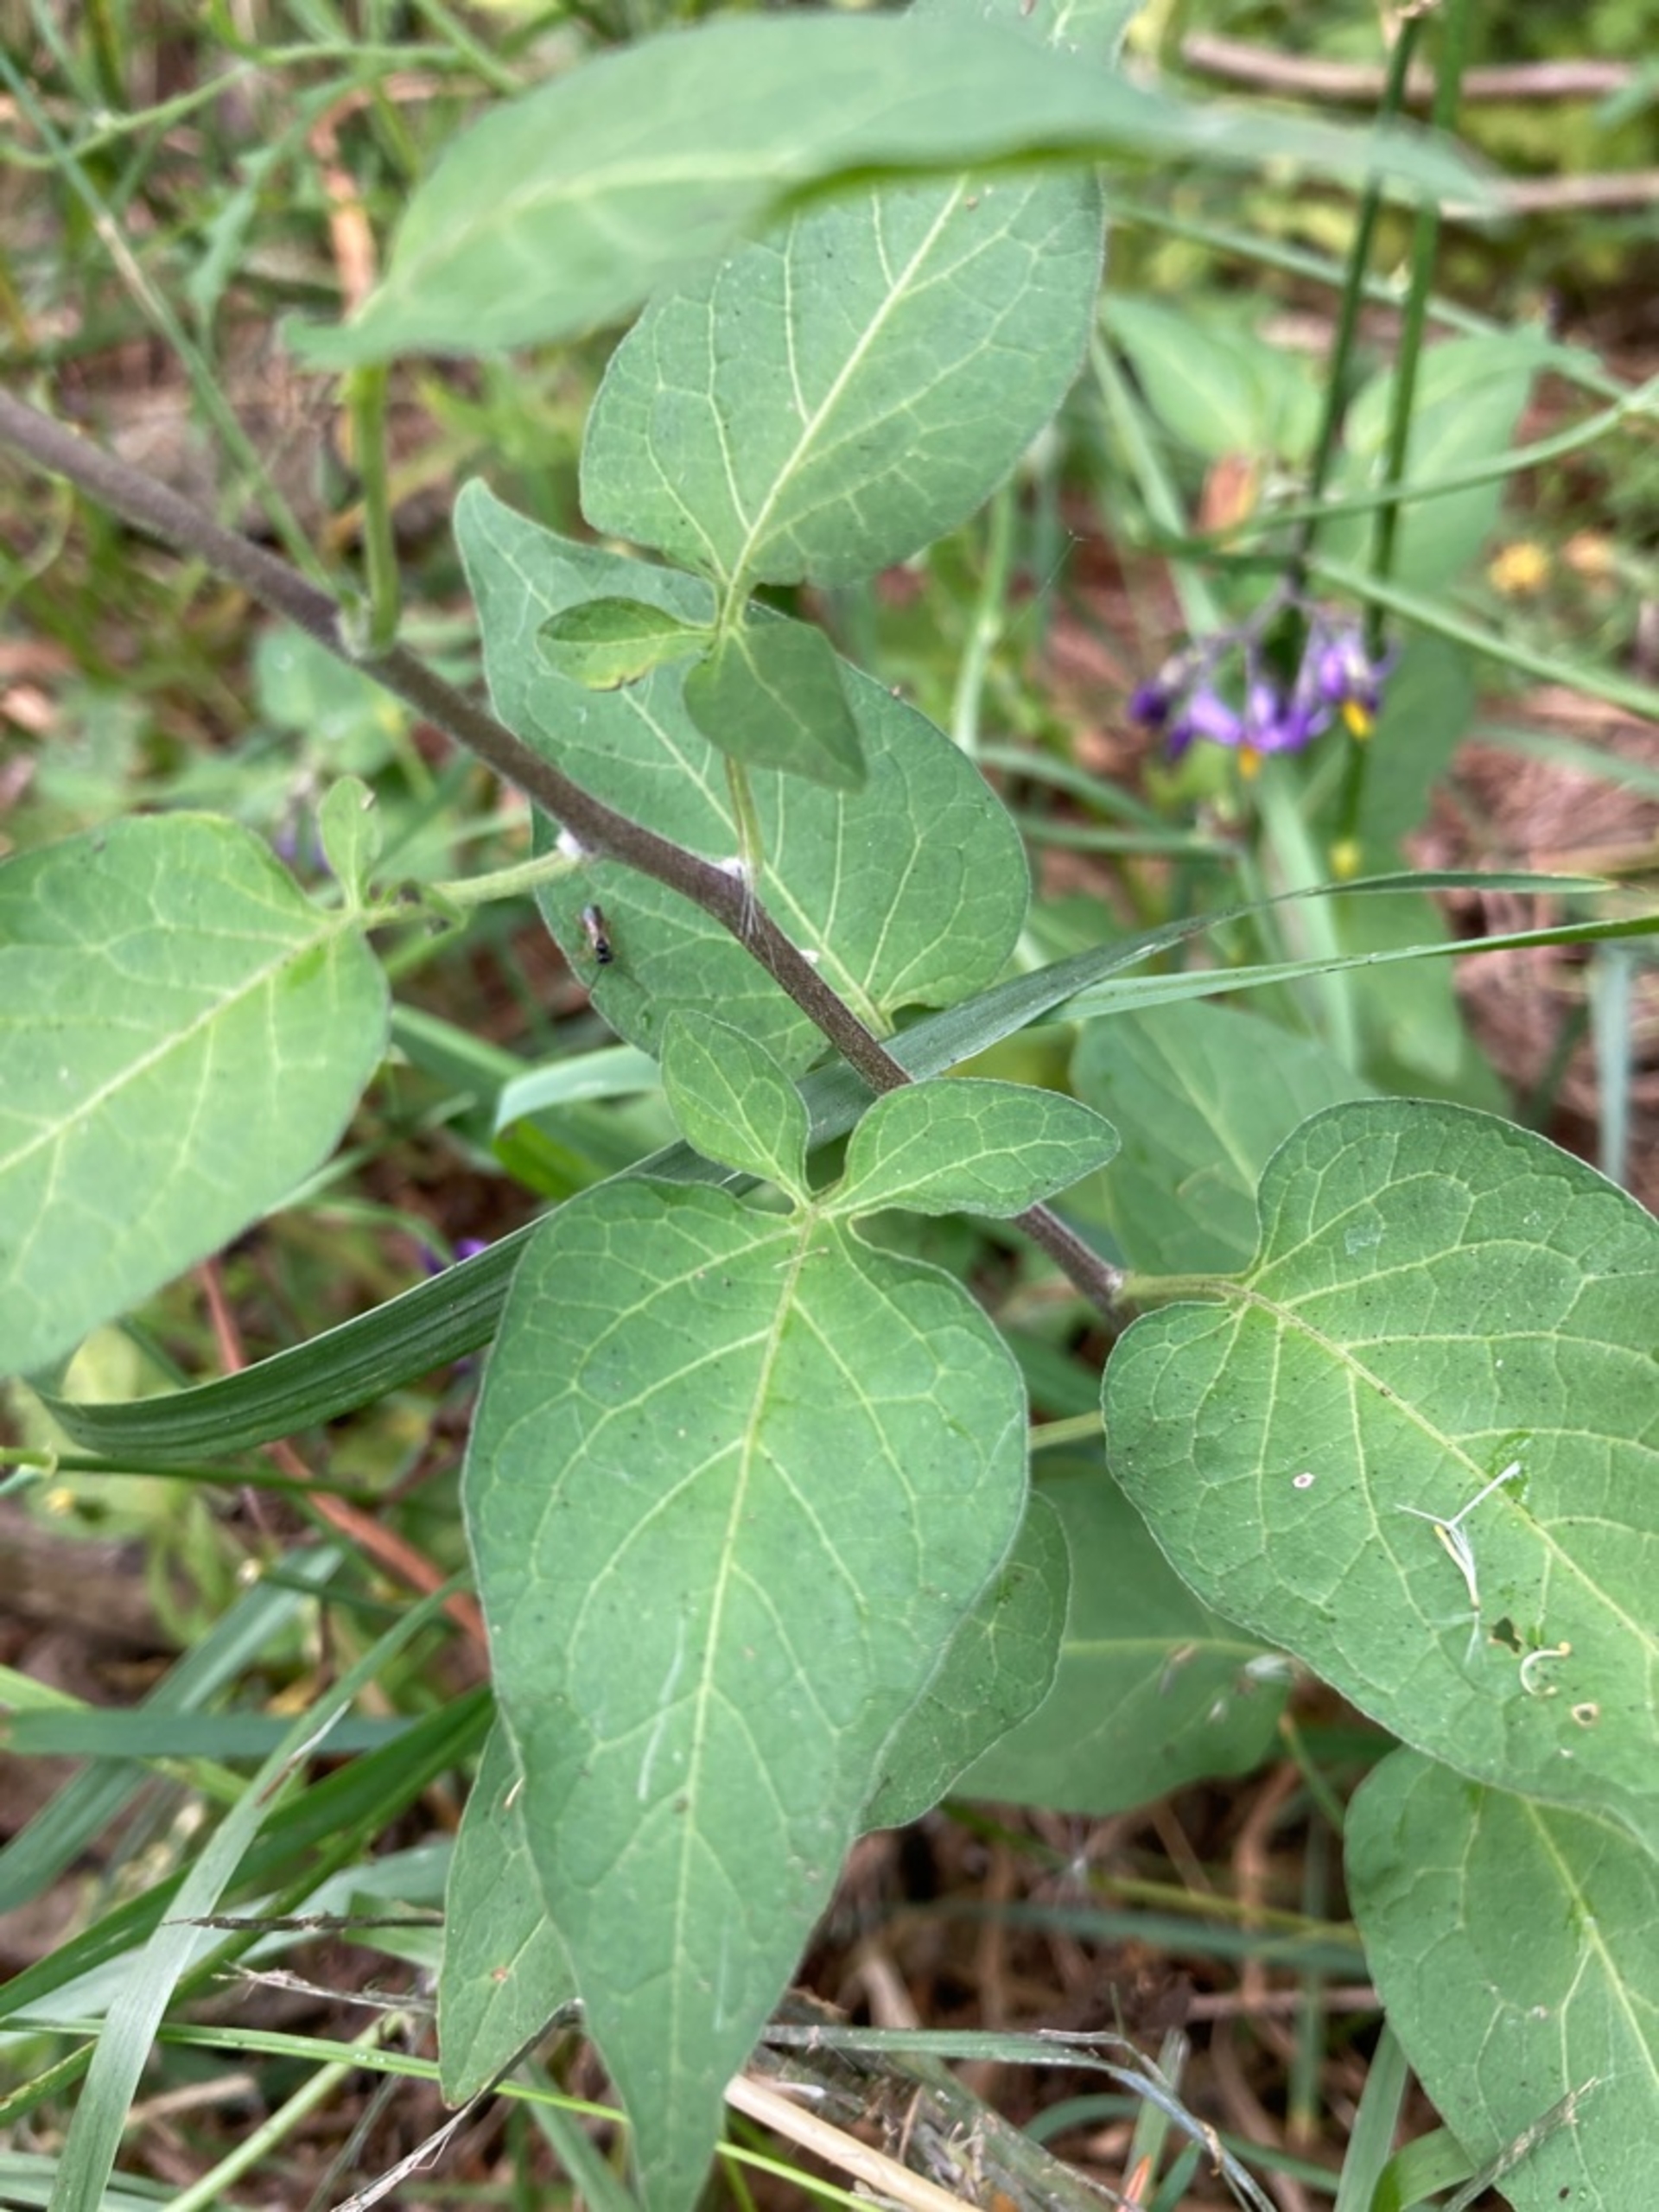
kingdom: Plantae
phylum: Tracheophyta
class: Magnoliopsida
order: Solanales
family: Solanaceae
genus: Solanum
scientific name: Solanum dulcamara
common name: Bittersød natskygge
